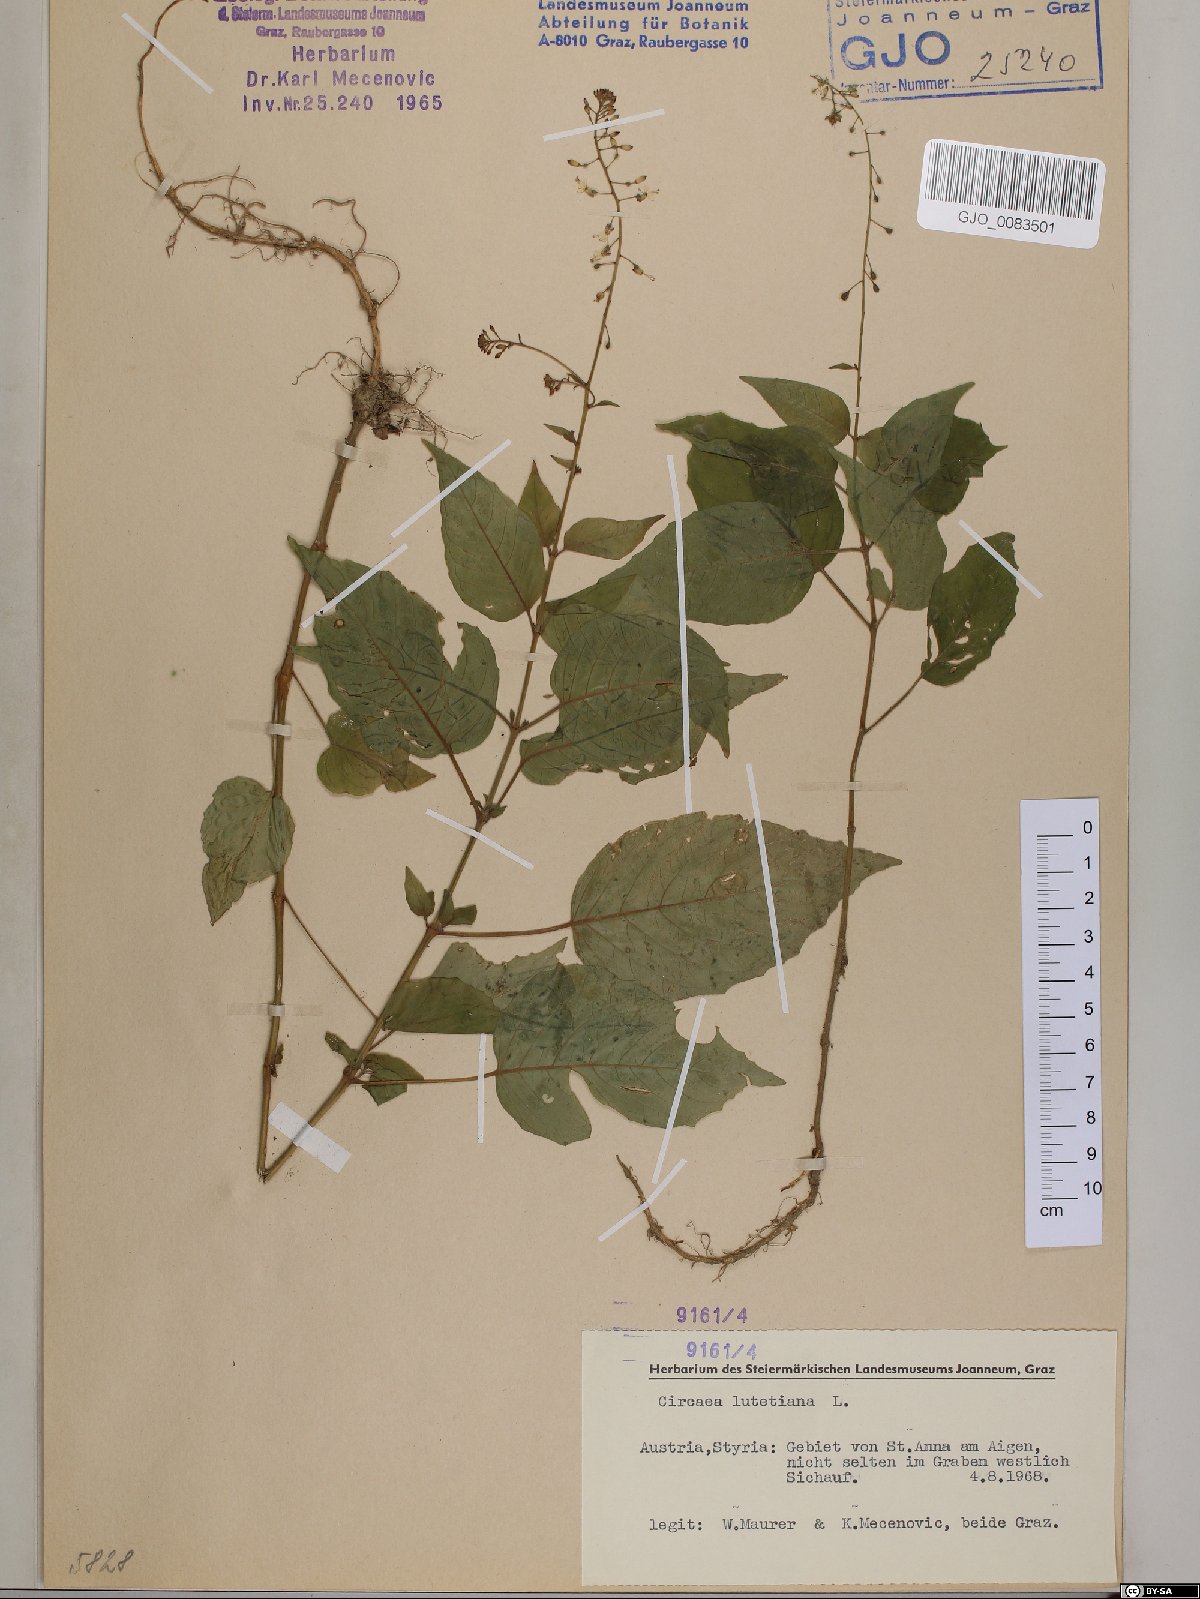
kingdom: Plantae
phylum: Tracheophyta
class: Magnoliopsida
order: Myrtales
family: Onagraceae
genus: Circaea
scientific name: Circaea lutetiana
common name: Enchanter's-nightshade
